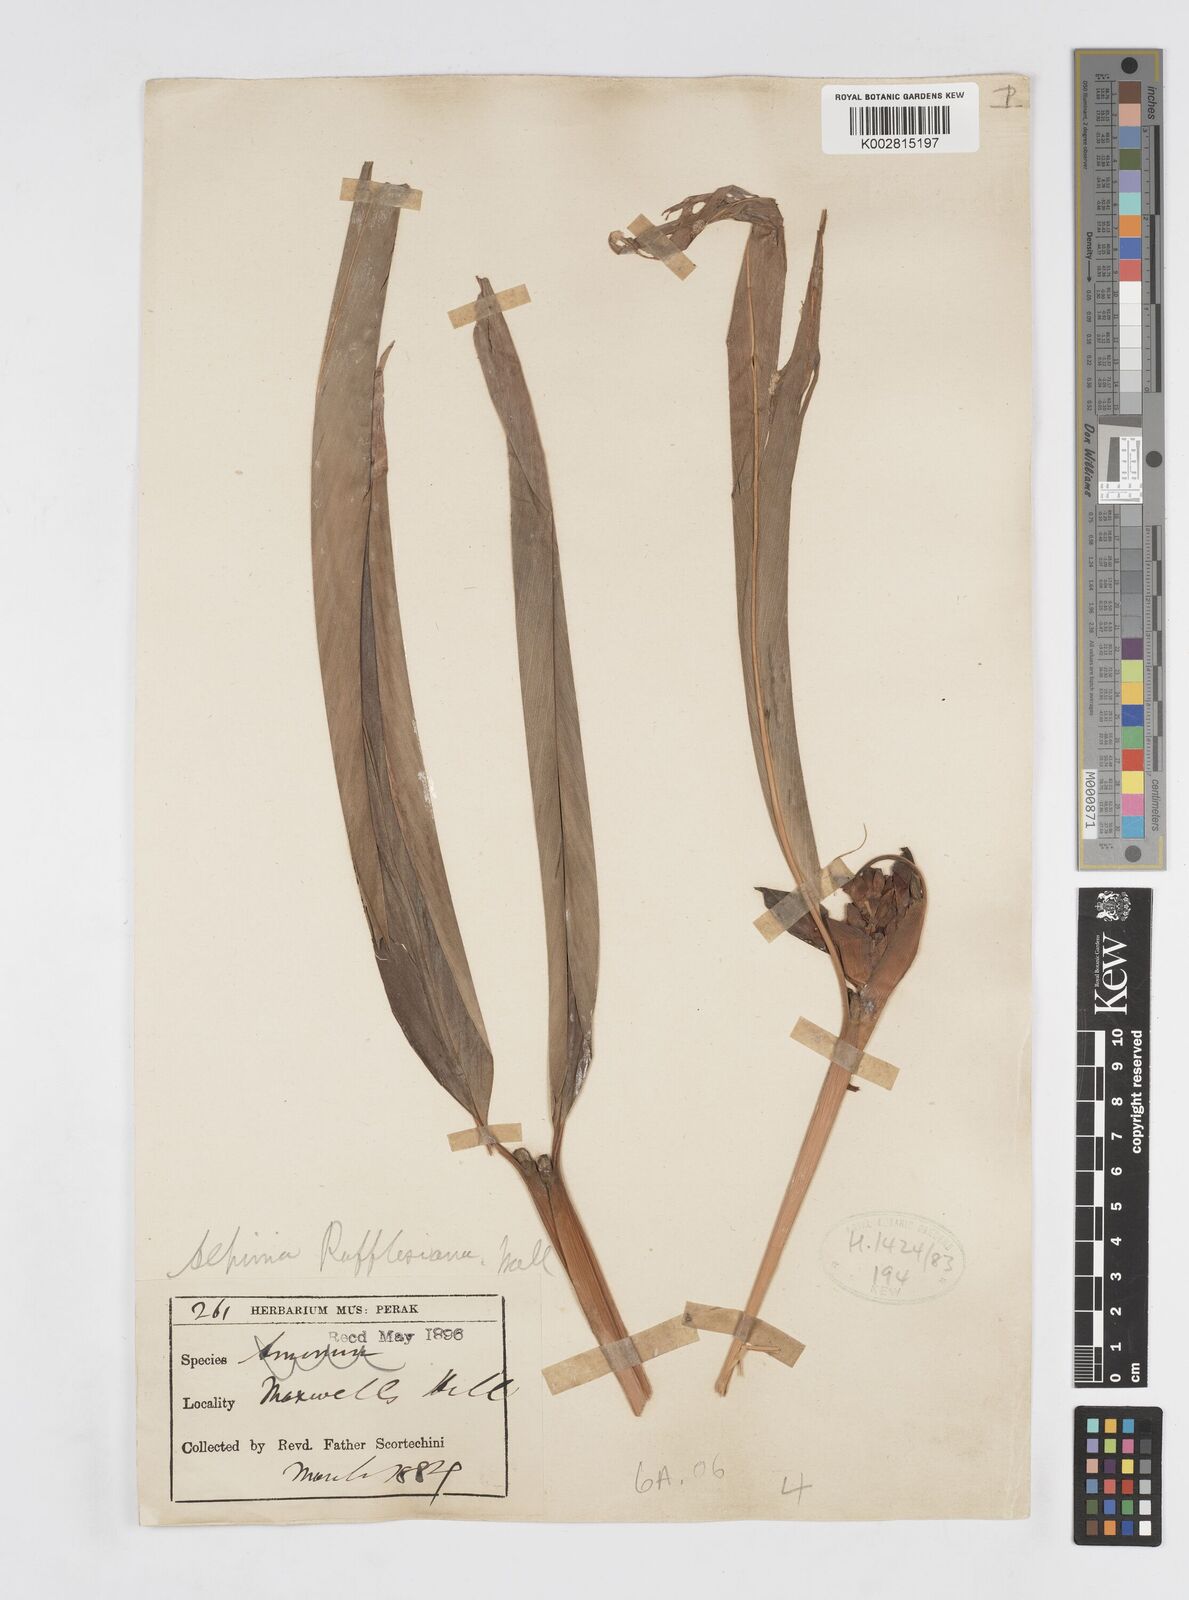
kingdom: Plantae
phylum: Tracheophyta
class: Liliopsida
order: Zingiberales
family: Zingiberaceae
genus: Alpinia
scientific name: Alpinia rafflesiana
